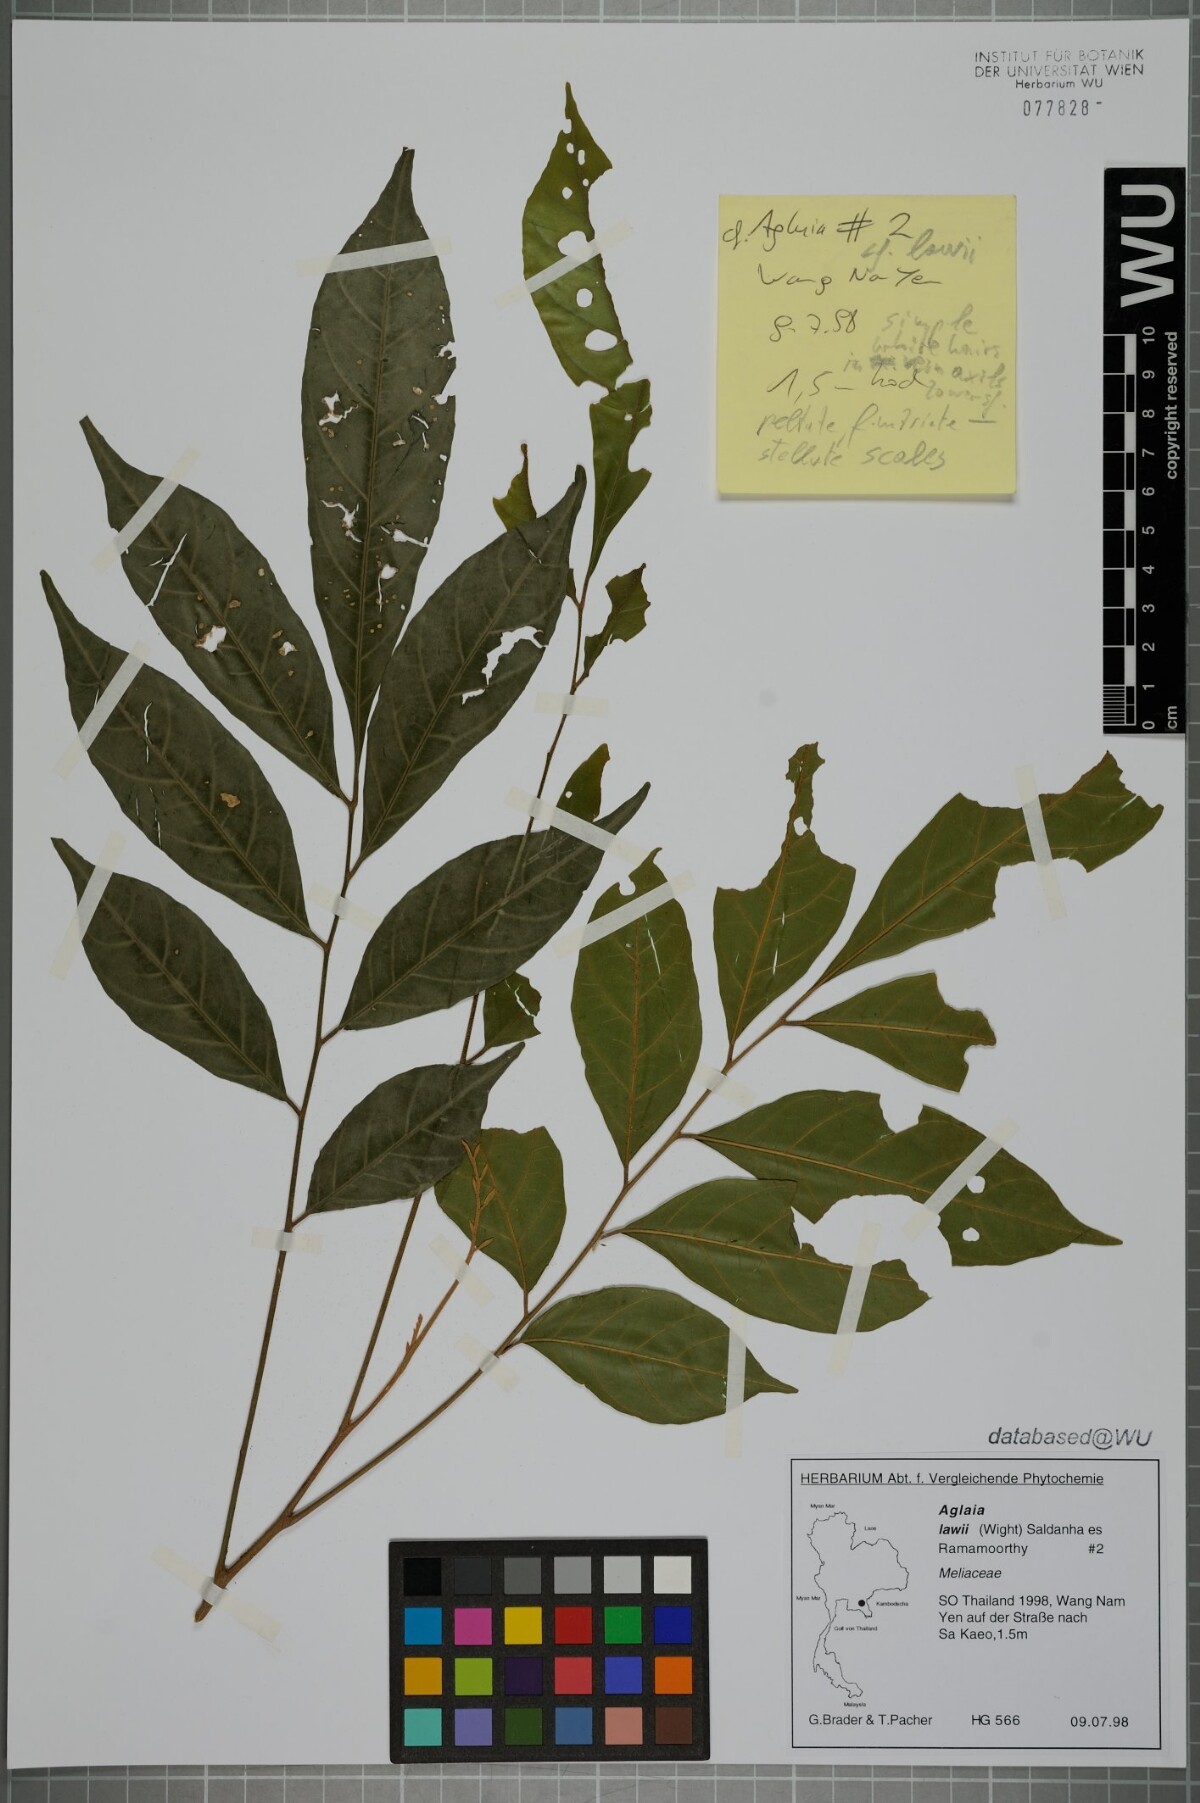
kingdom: Plantae
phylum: Tracheophyta
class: Magnoliopsida
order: Sapindales
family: Meliaceae
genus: Aglaia
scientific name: Aglaia lawii
